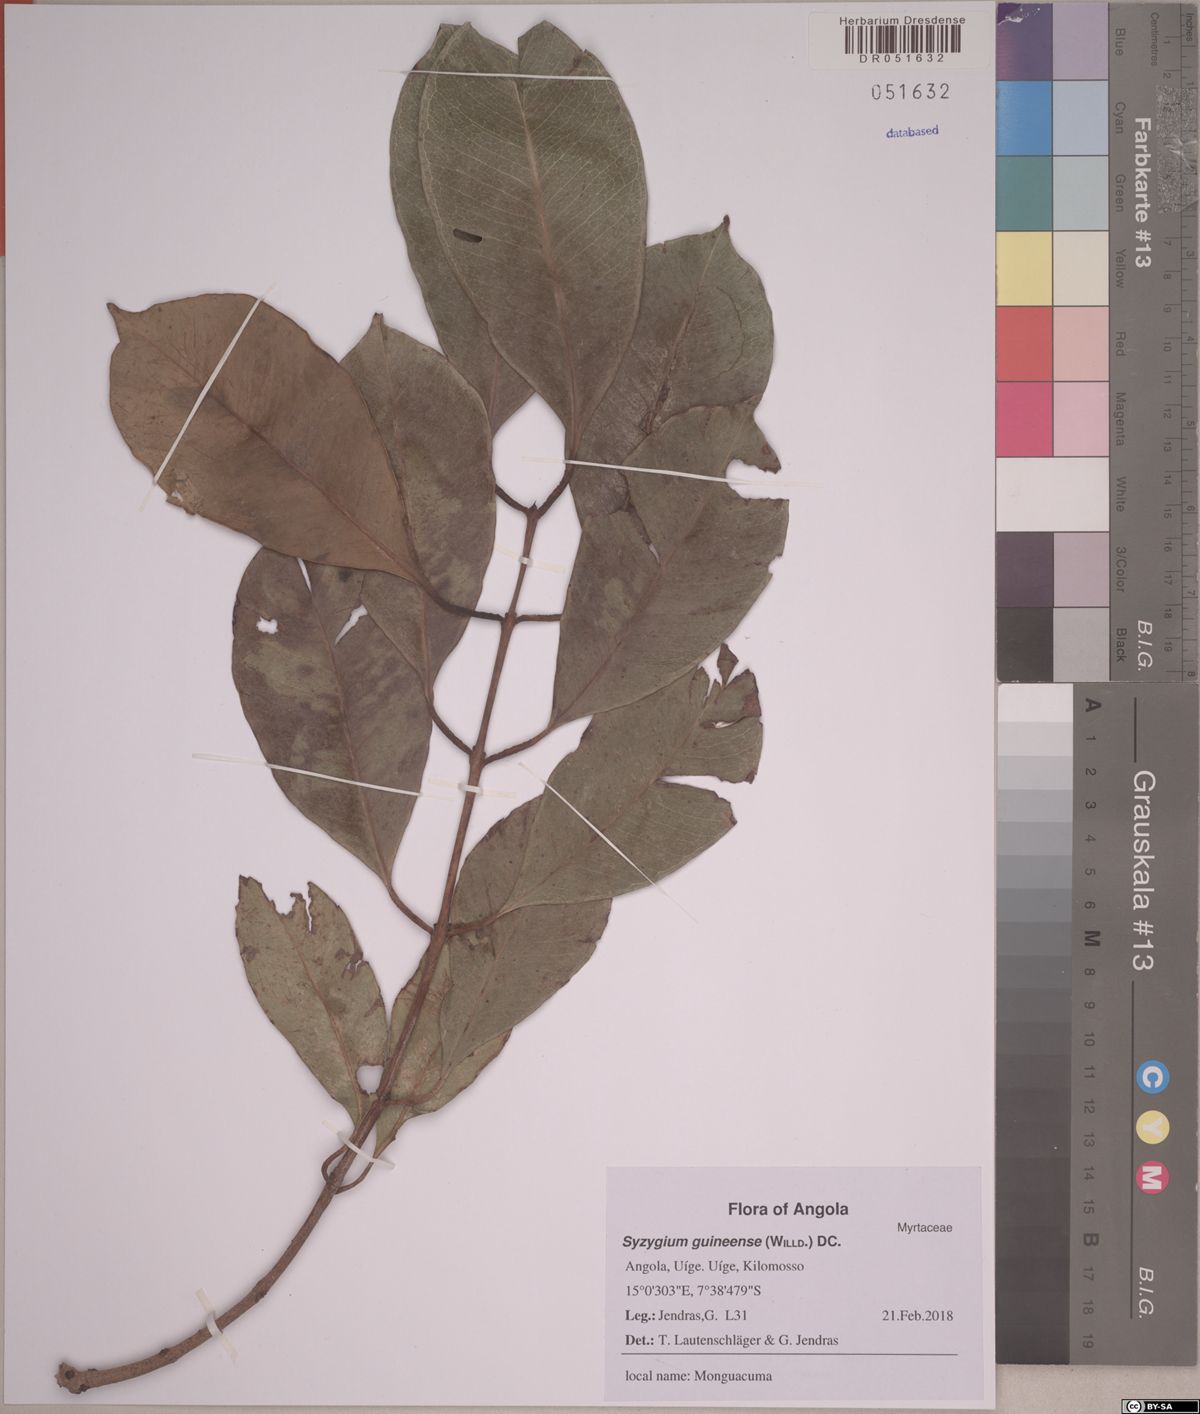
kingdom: Plantae
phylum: Tracheophyta
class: Magnoliopsida
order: Myrtales
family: Myrtaceae
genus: Syzygium
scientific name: Syzygium guineense
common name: Water-pear
